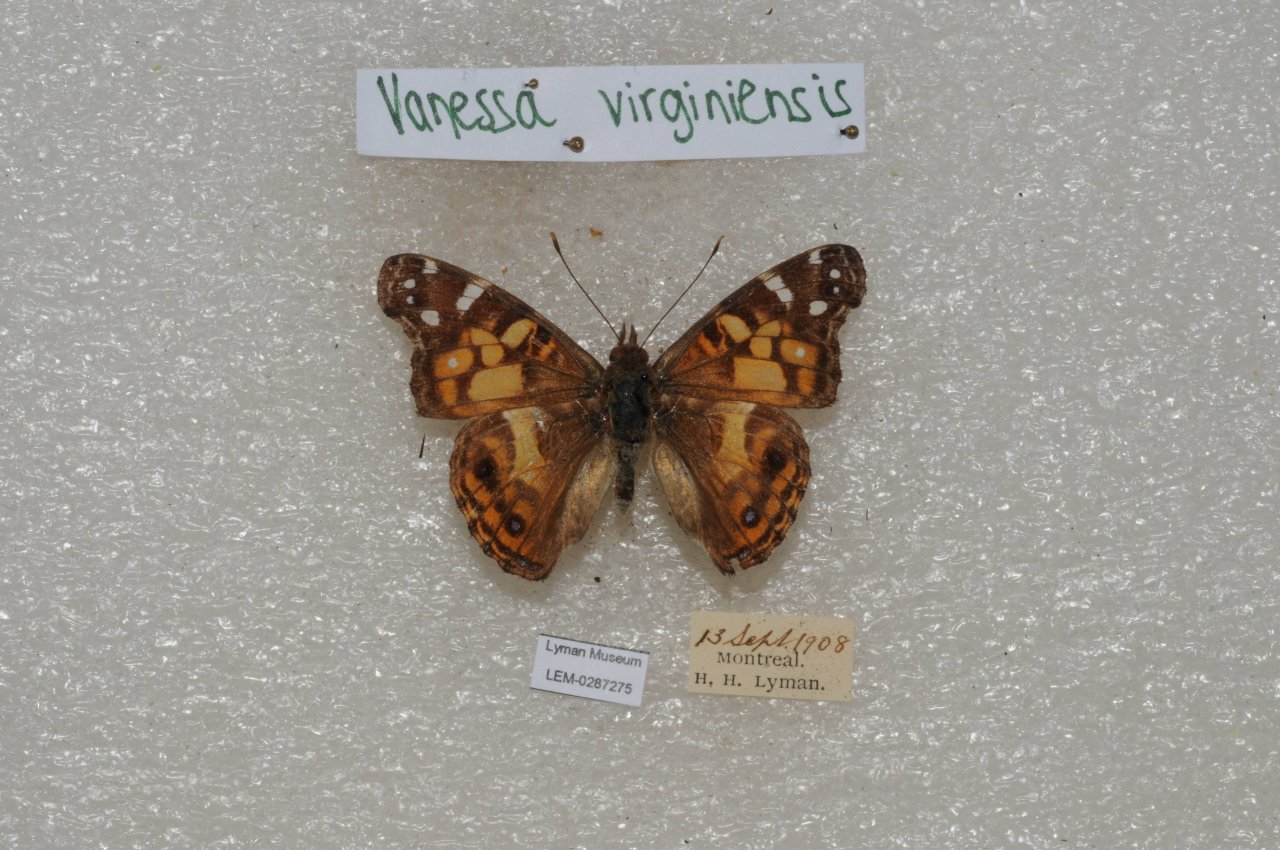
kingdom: Animalia
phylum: Arthropoda
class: Insecta
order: Lepidoptera
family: Nymphalidae
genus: Vanessa
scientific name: Vanessa virginiensis
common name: American Lady
